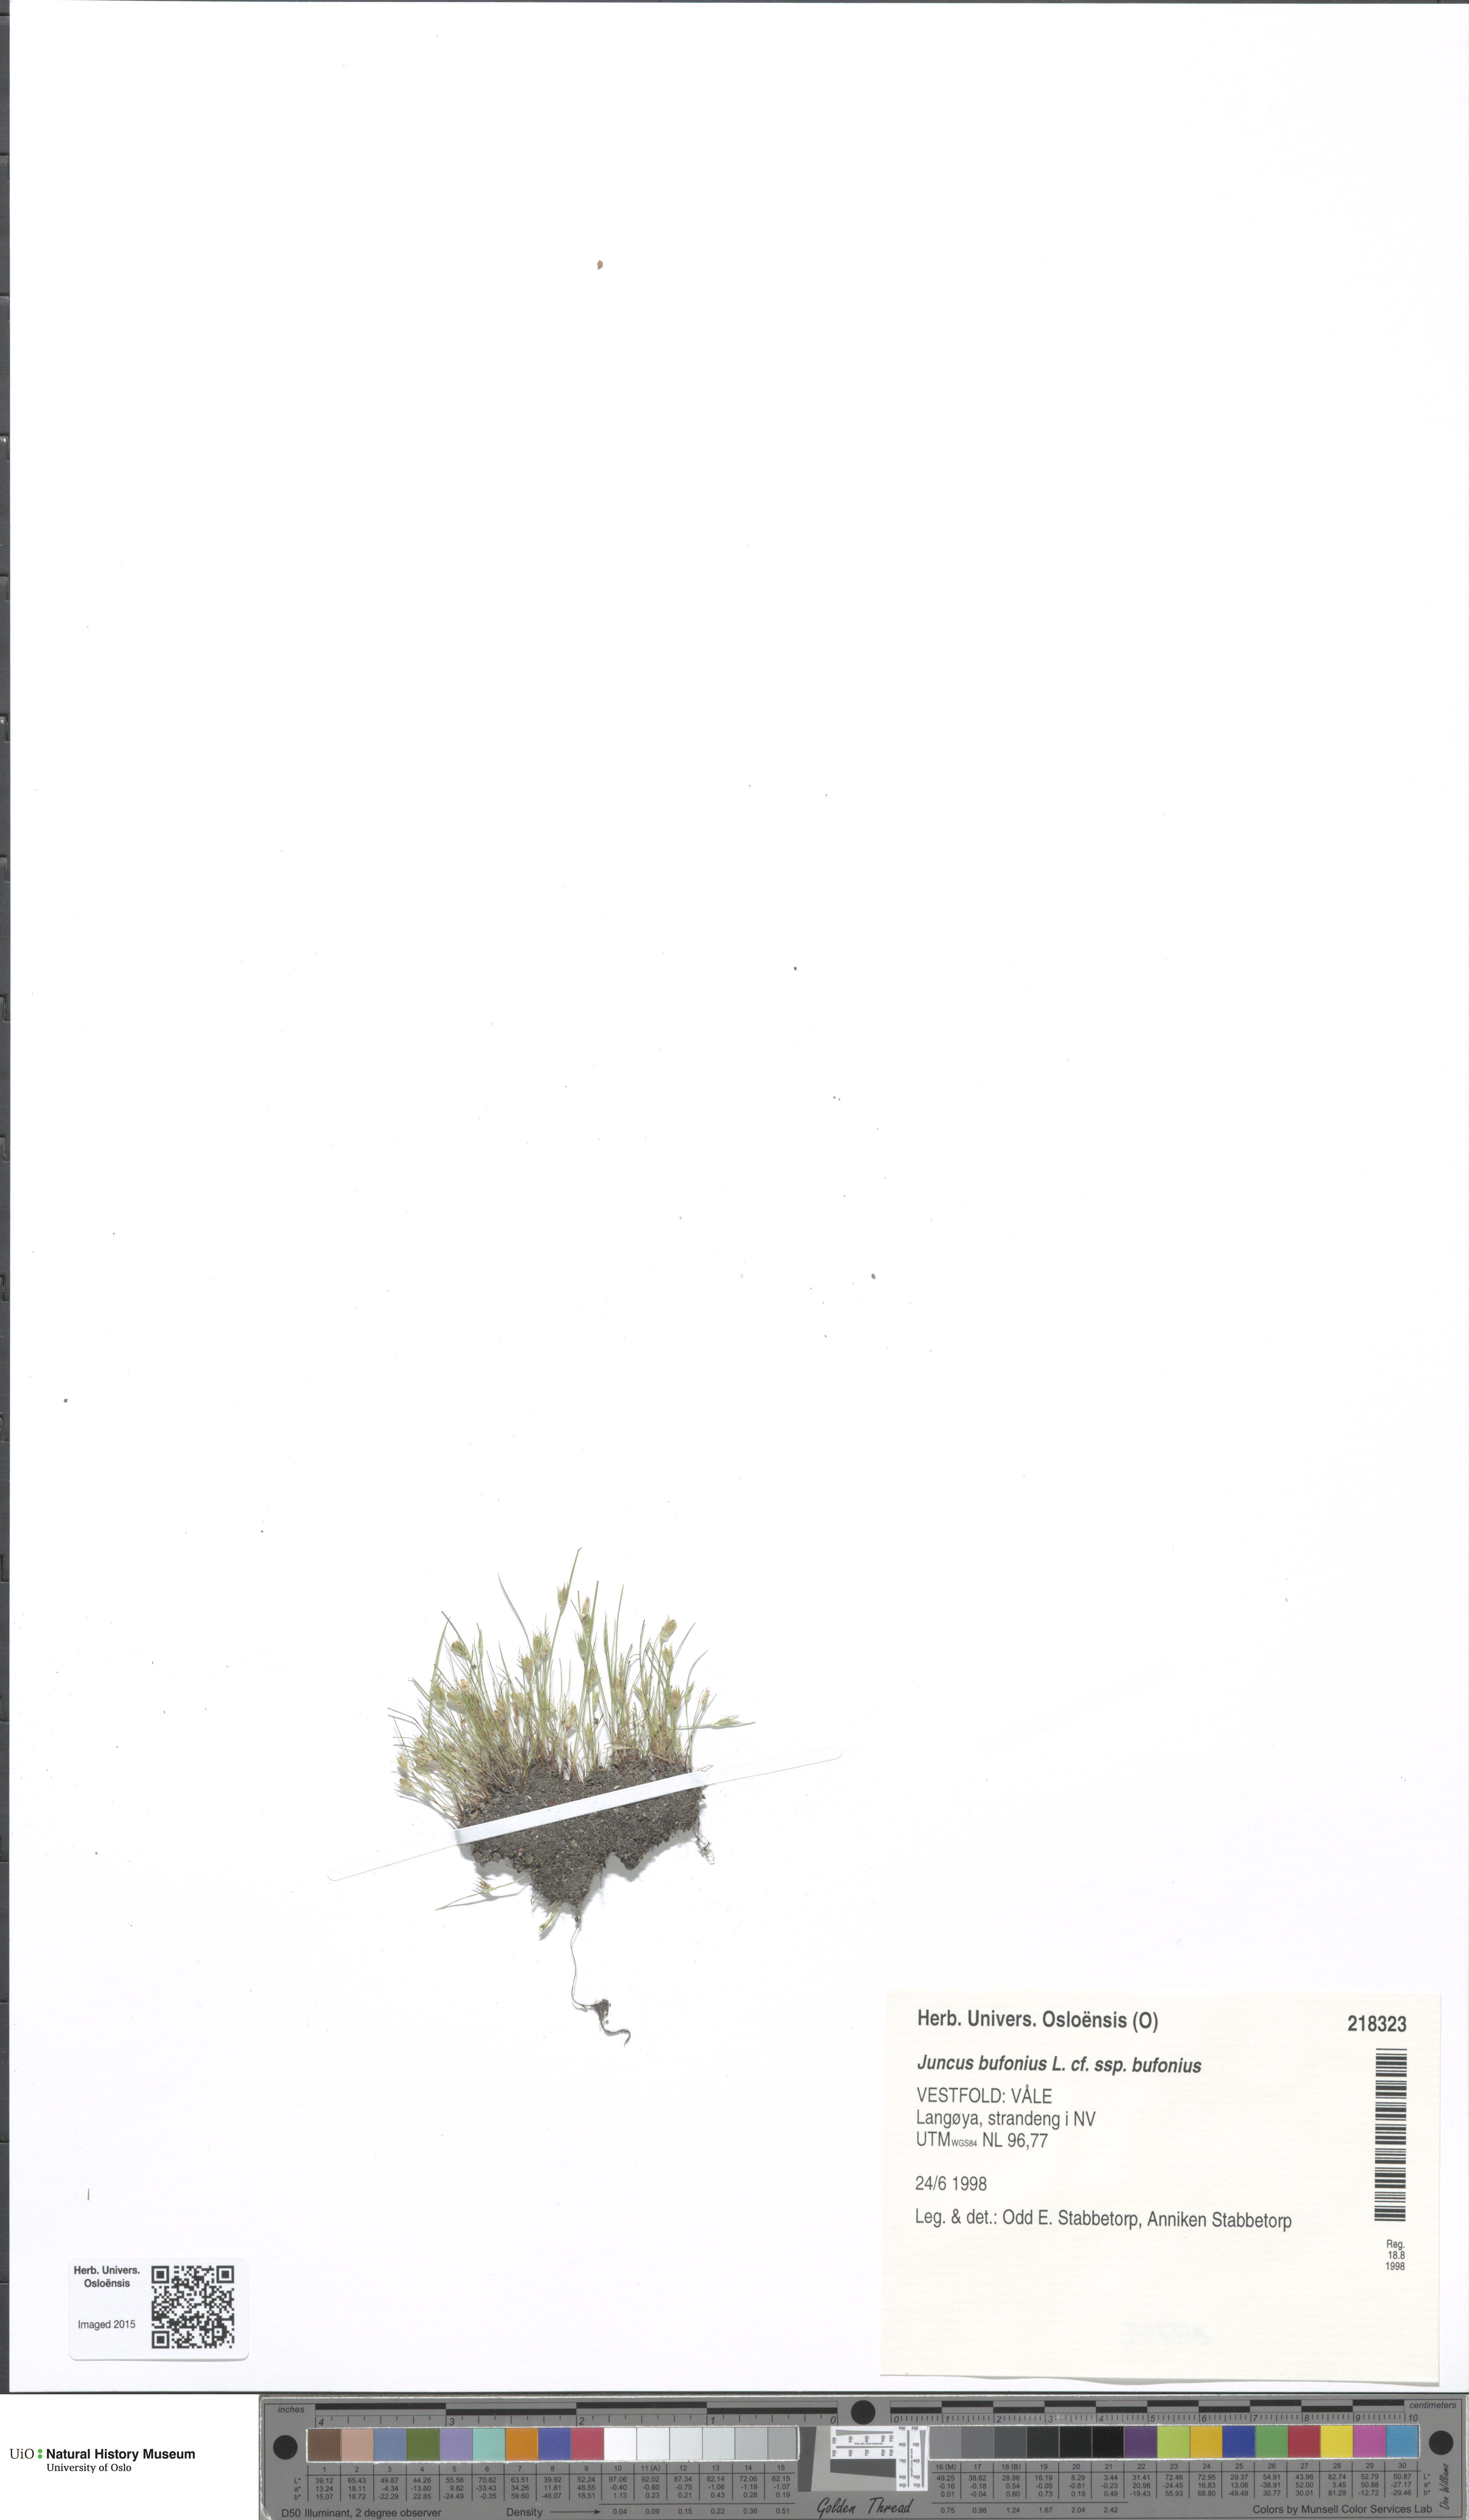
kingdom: Plantae
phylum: Tracheophyta
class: Liliopsida
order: Poales
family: Juncaceae
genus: Juncus
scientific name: Juncus bufonius
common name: Toad rush
